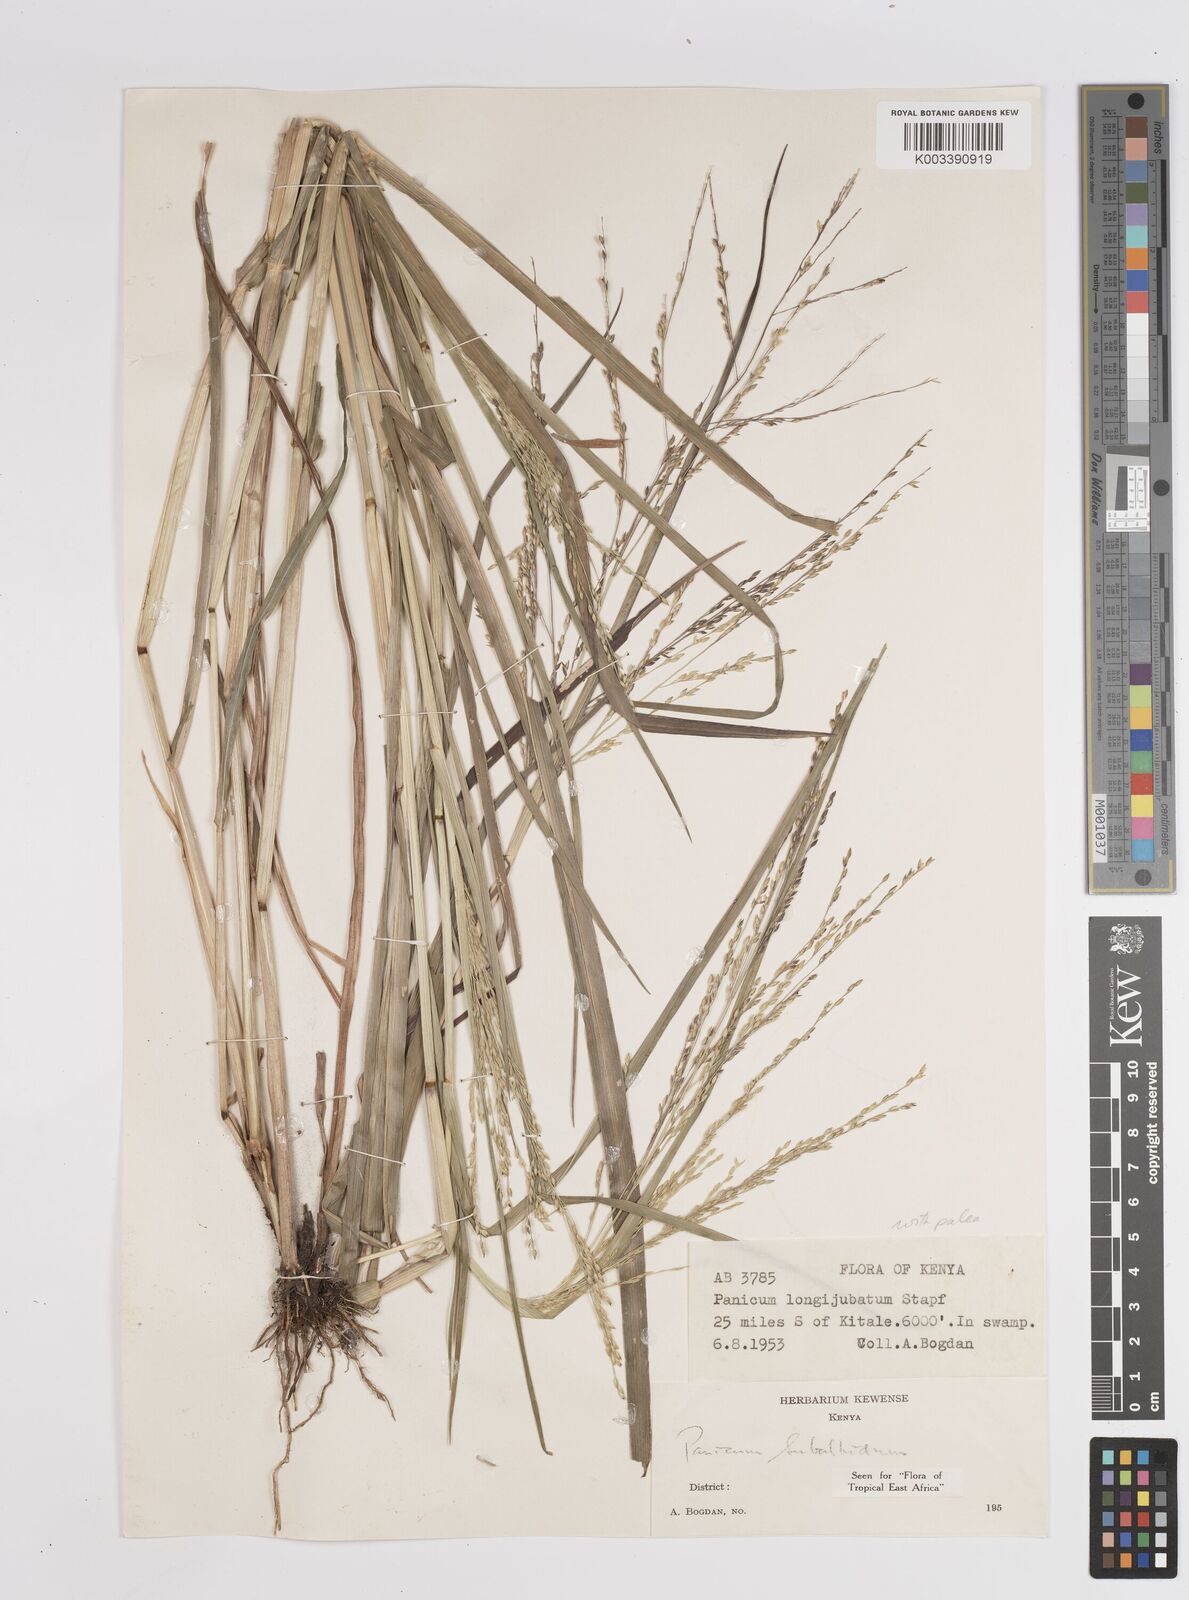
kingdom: Plantae
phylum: Tracheophyta
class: Liliopsida
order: Poales
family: Poaceae
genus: Panicum
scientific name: Panicum subalbidum
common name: Elbow buffalo grass
